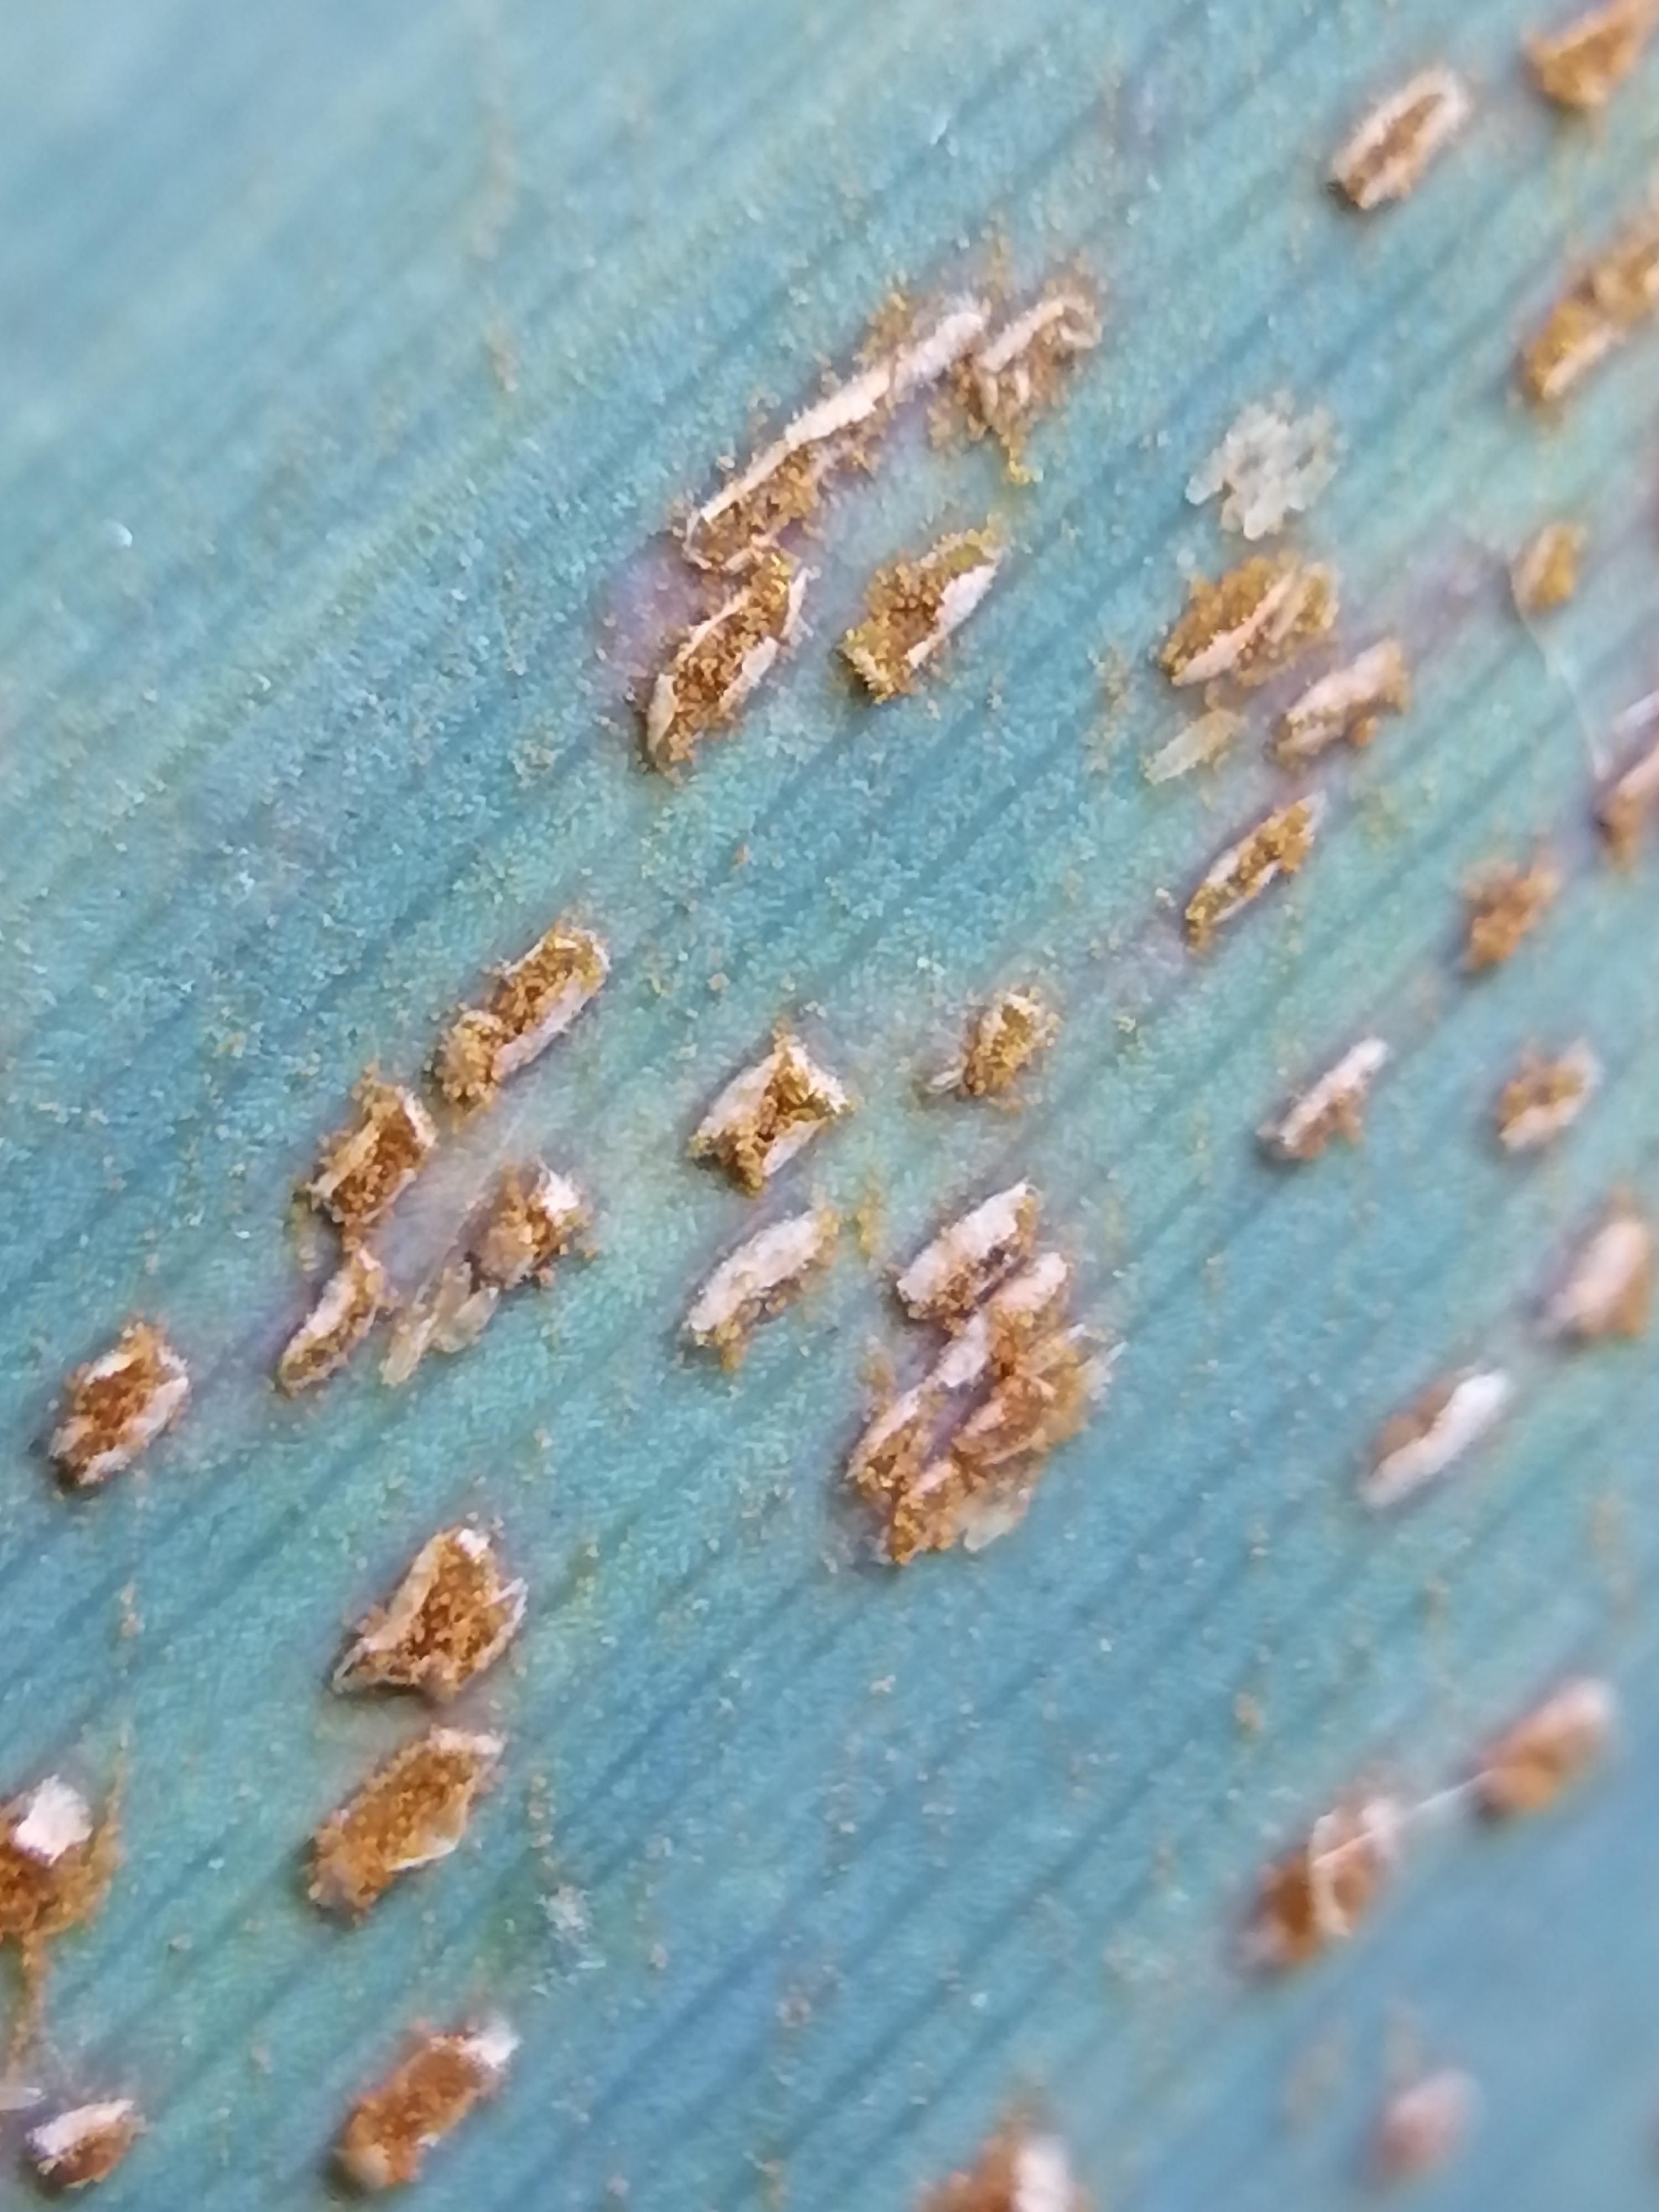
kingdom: Fungi
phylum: Basidiomycota
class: Pucciniomycetes
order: Pucciniales
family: Pucciniaceae
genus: Puccinia
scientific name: Puccinia
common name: tvecellerust
